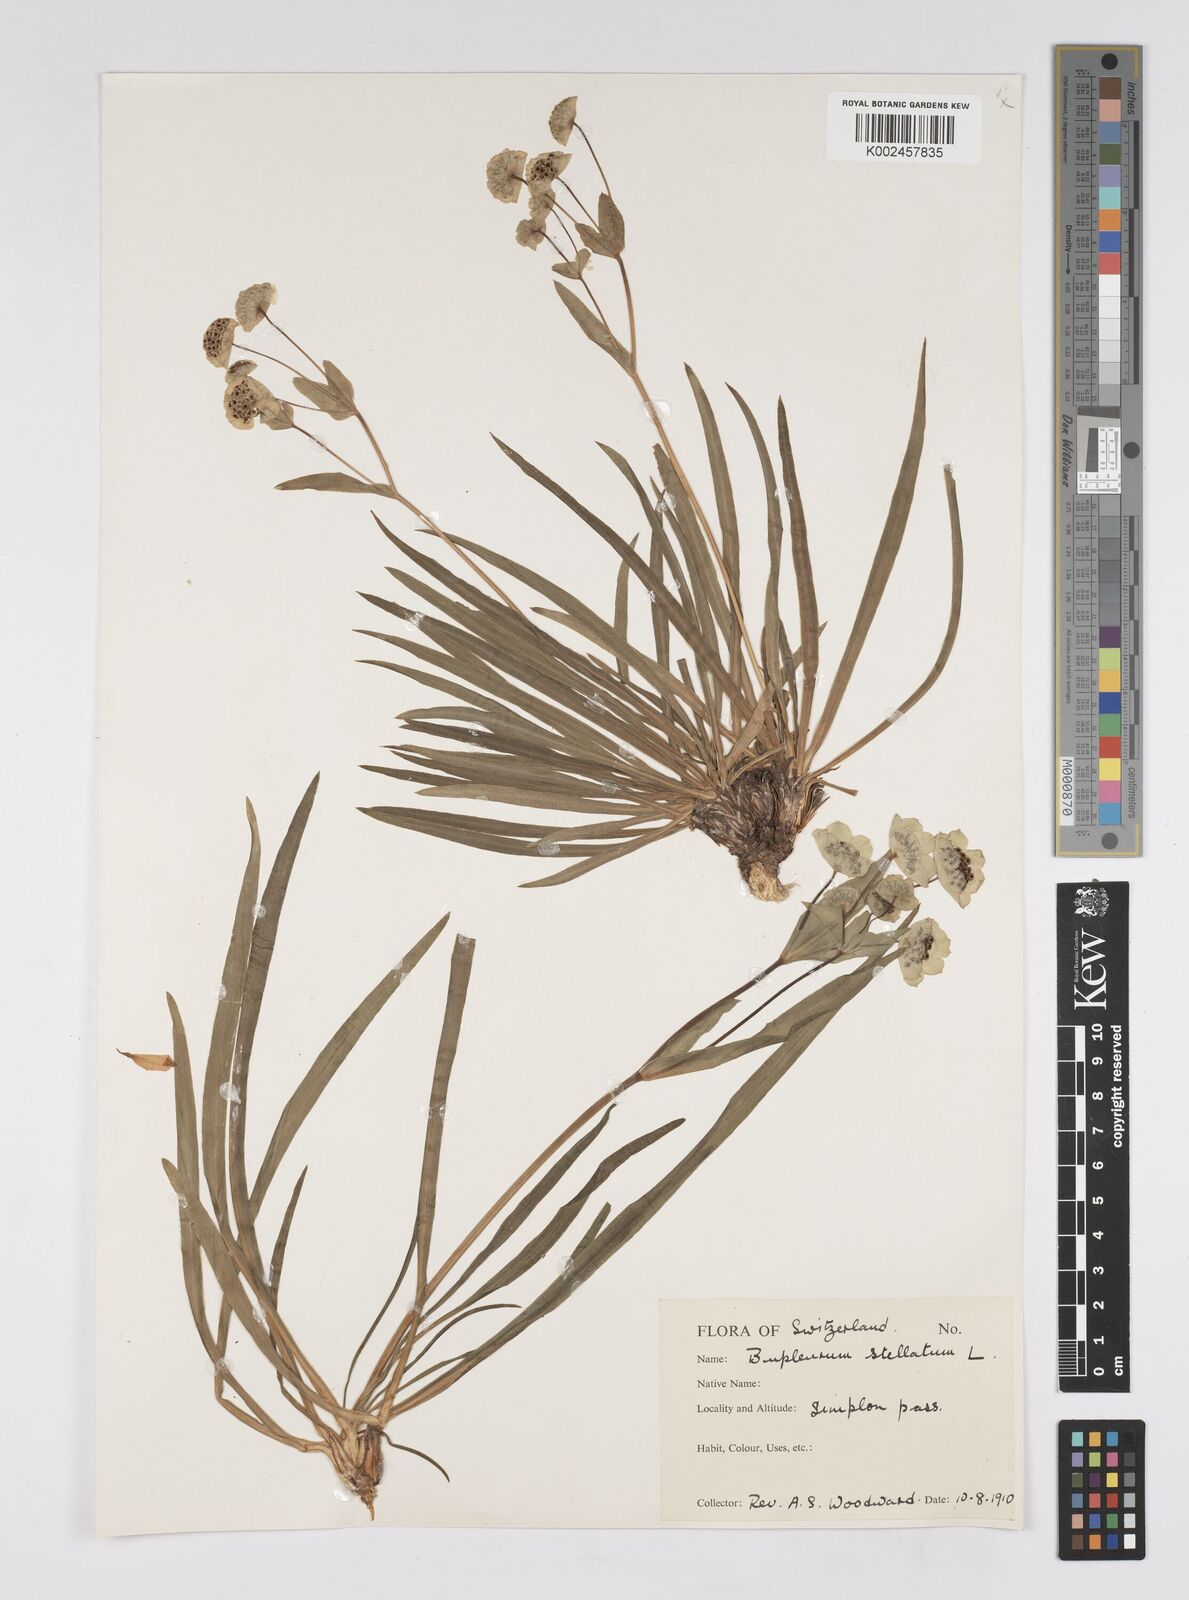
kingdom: Plantae
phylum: Tracheophyta
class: Magnoliopsida
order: Apiales
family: Apiaceae
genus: Bupleurum
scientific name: Bupleurum stellatum
